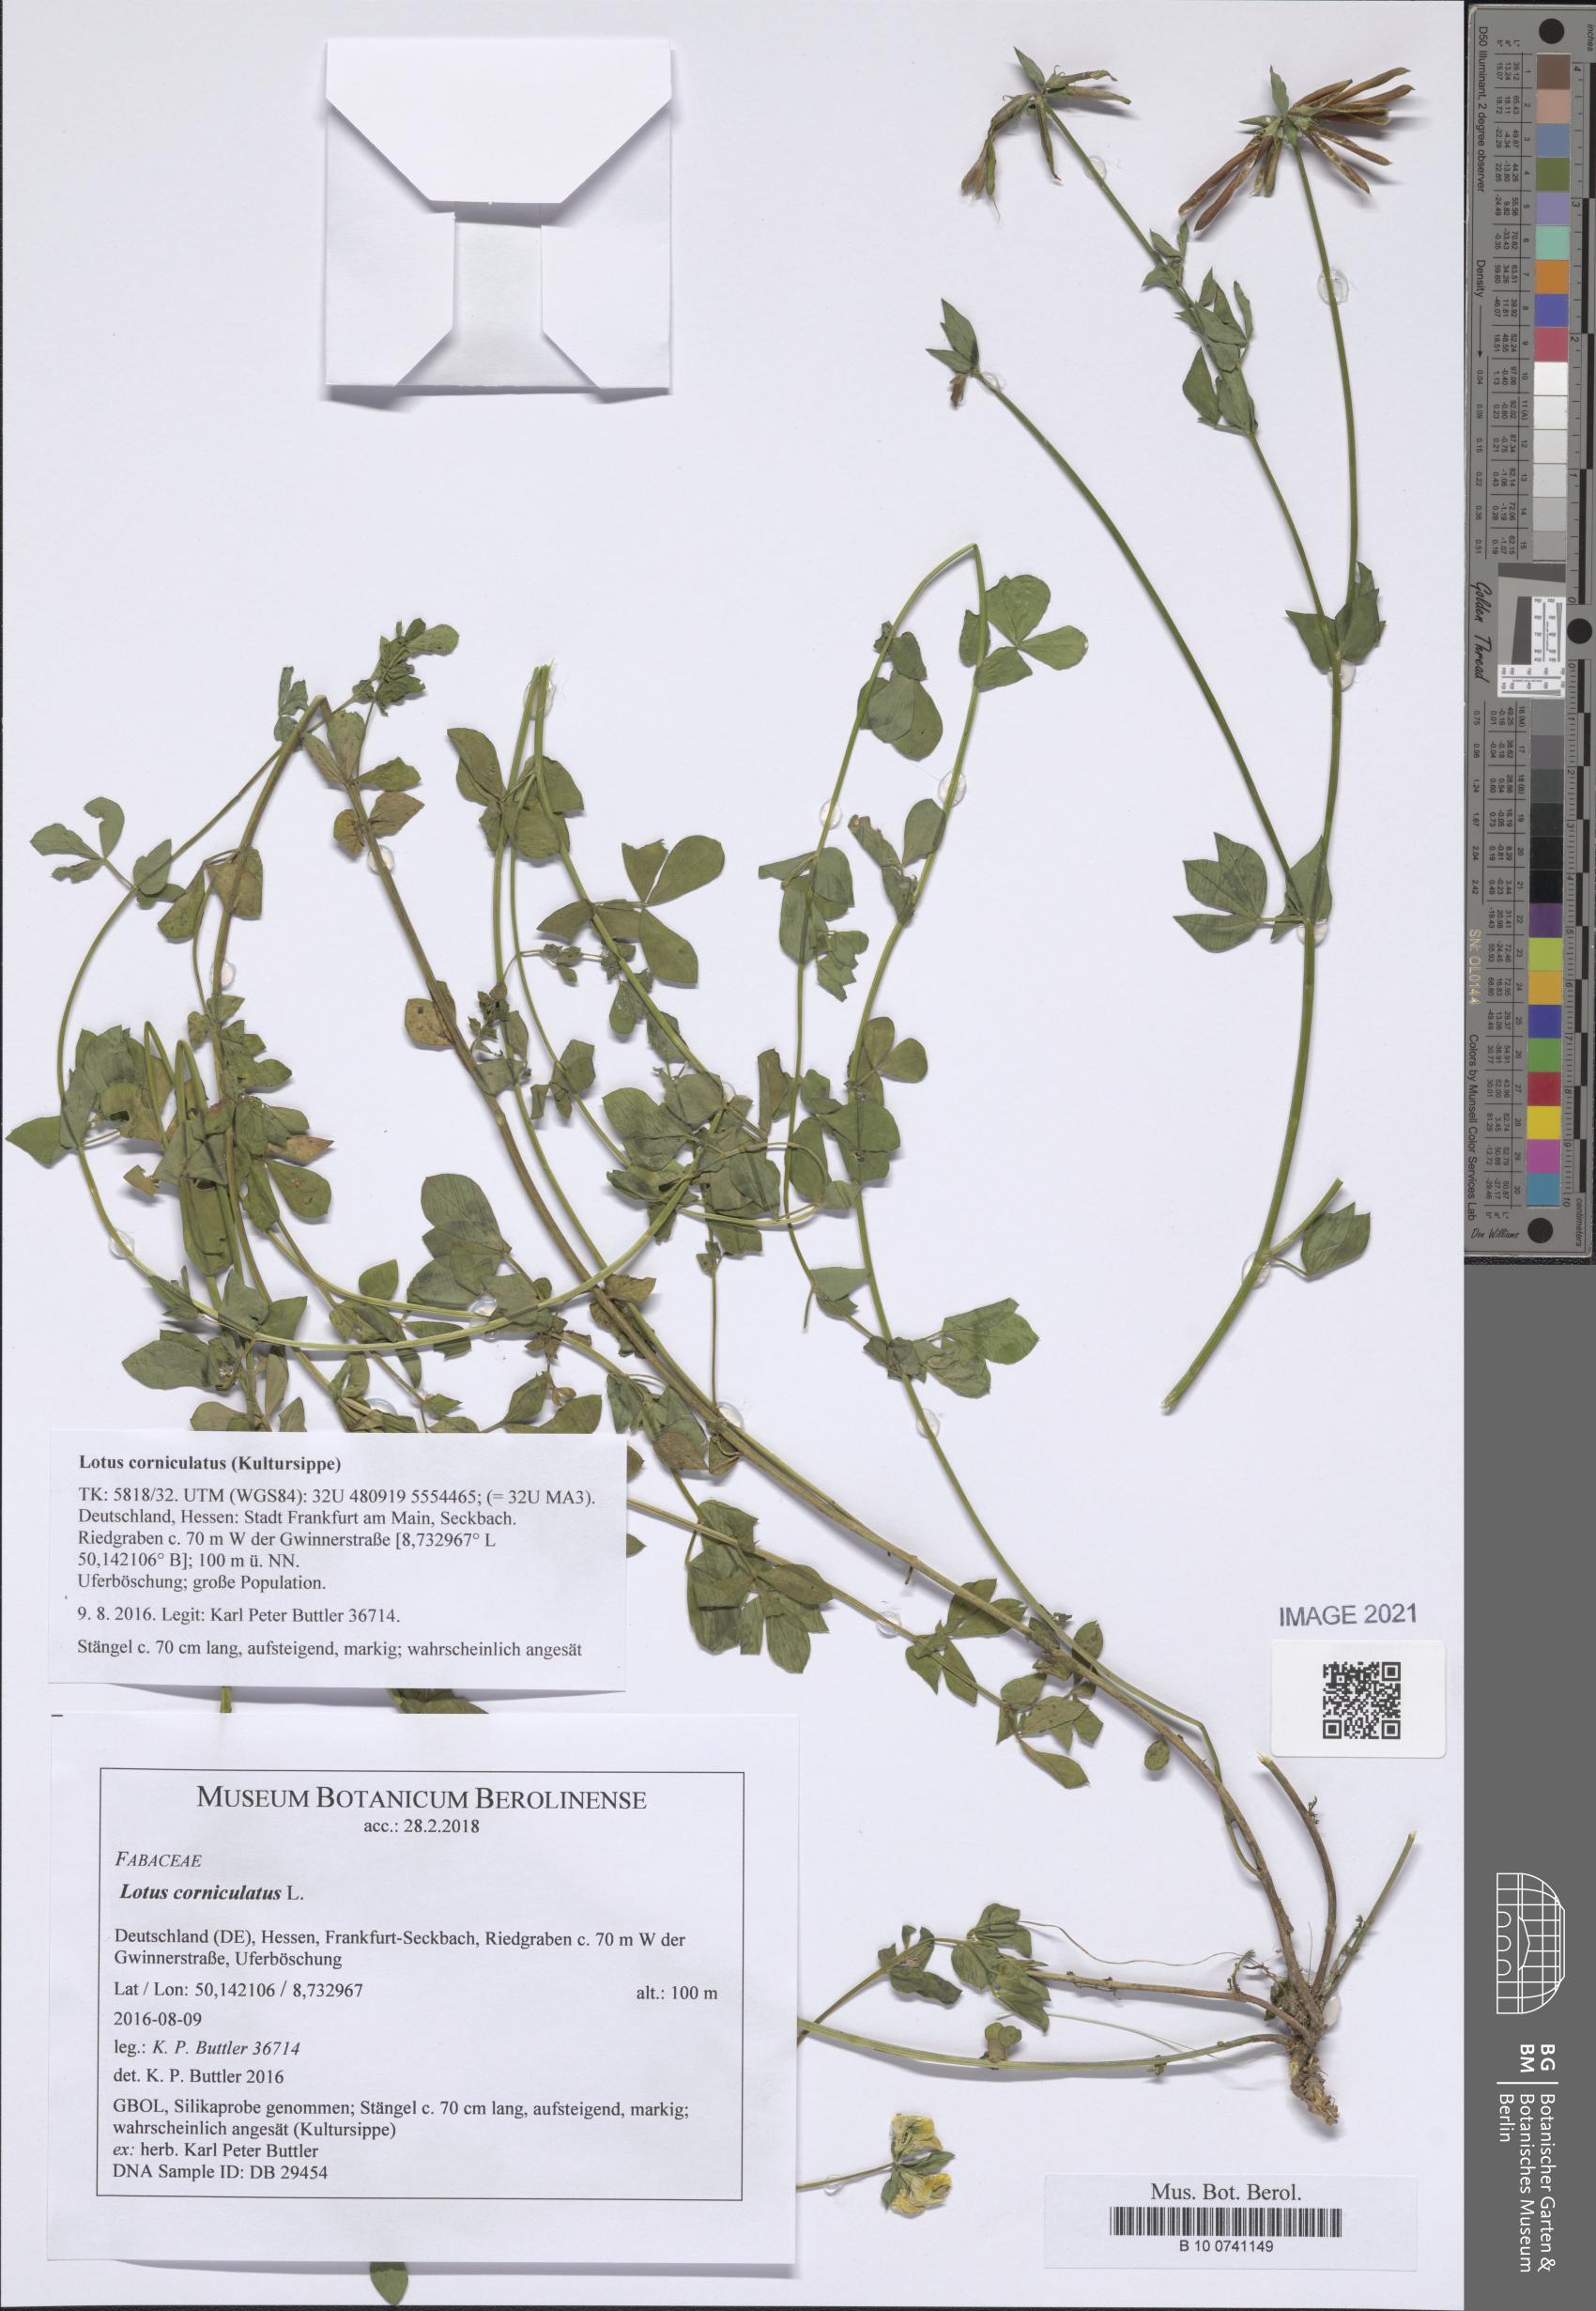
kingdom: Plantae
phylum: Tracheophyta
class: Magnoliopsida
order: Fabales
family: Fabaceae
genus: Lotus
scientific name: Lotus corniculatus
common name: Common bird's-foot-trefoil
